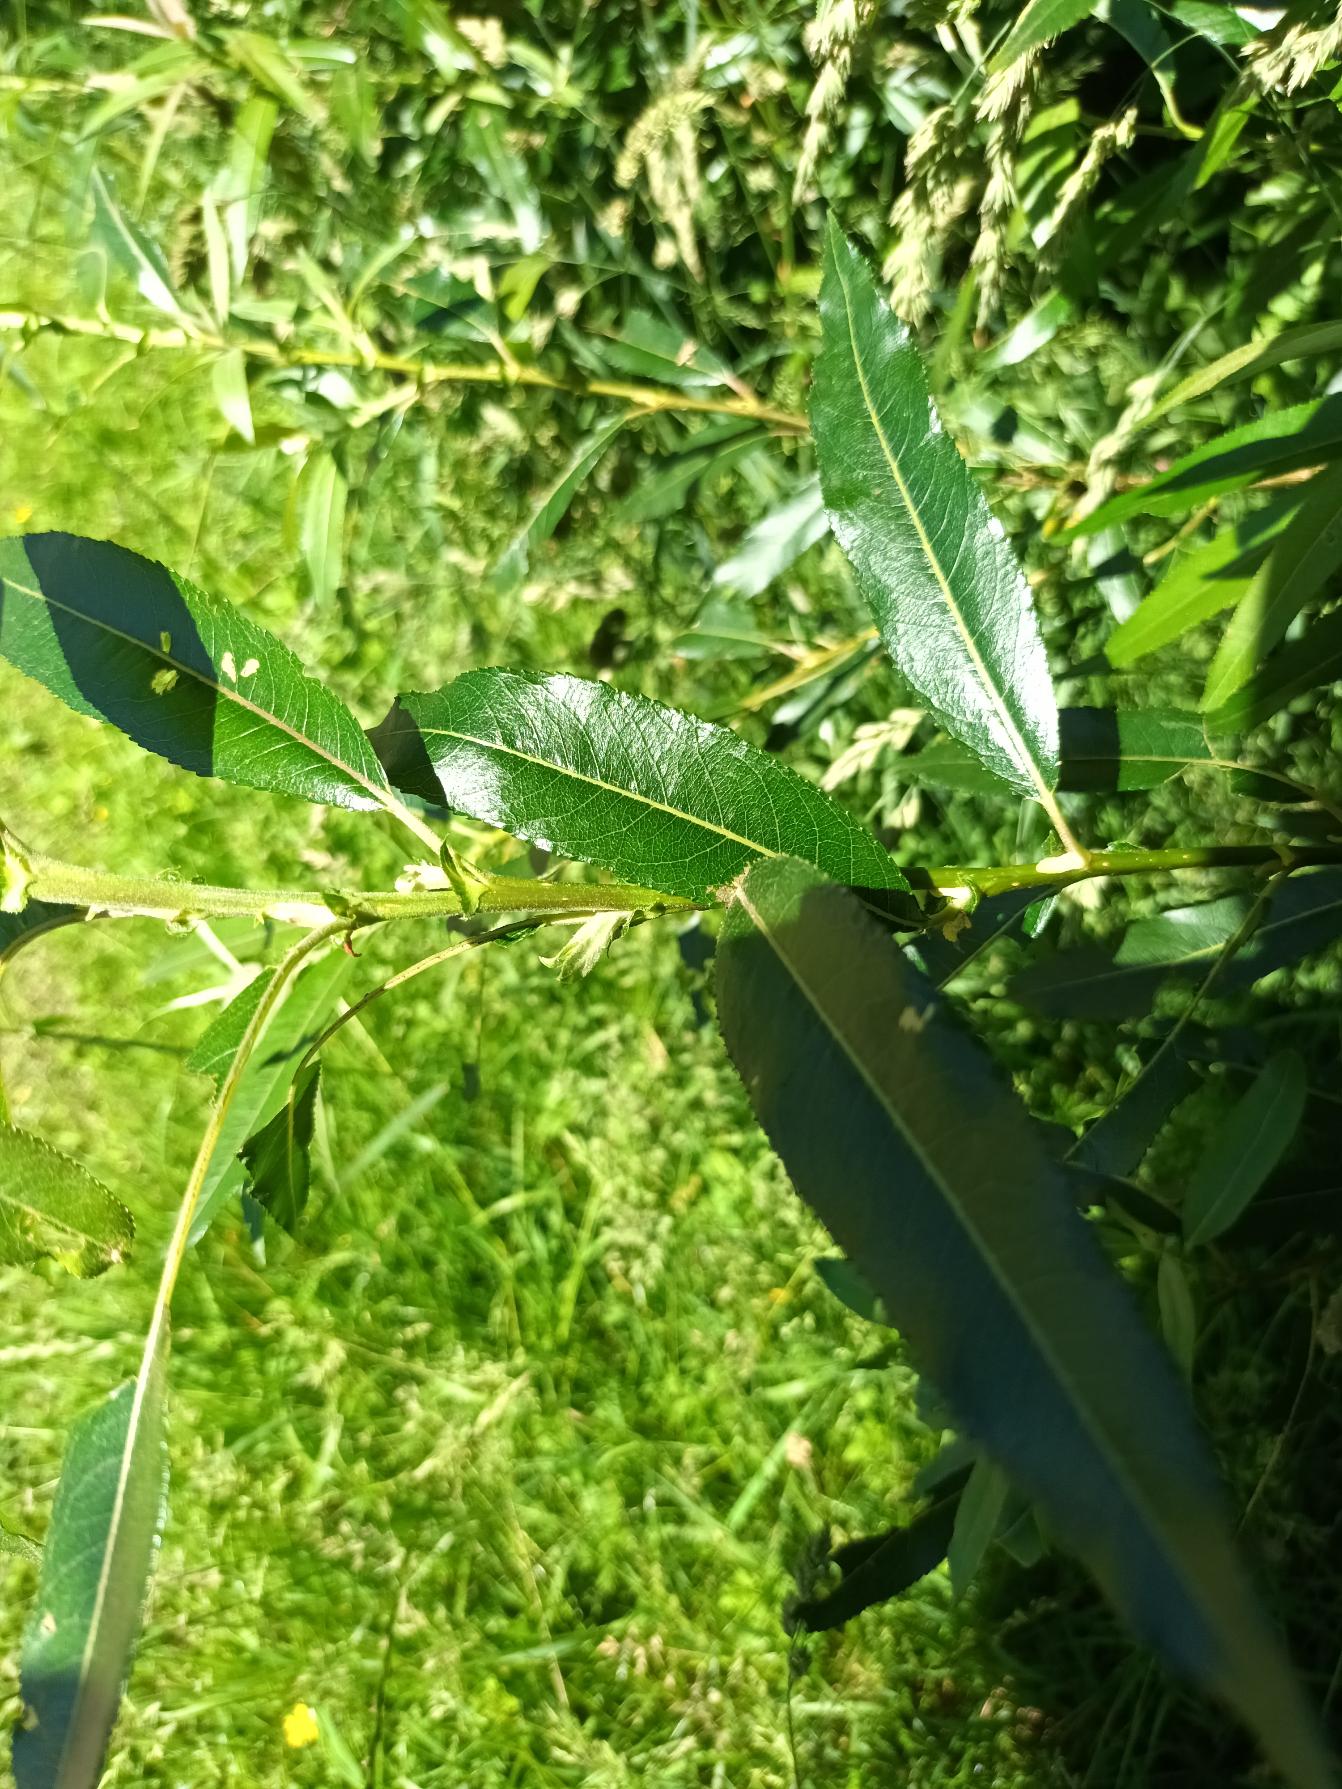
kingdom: Plantae
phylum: Tracheophyta
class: Magnoliopsida
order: Malpighiales
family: Salicaceae
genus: Salix
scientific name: Salix fragilis
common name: Grøn pil
